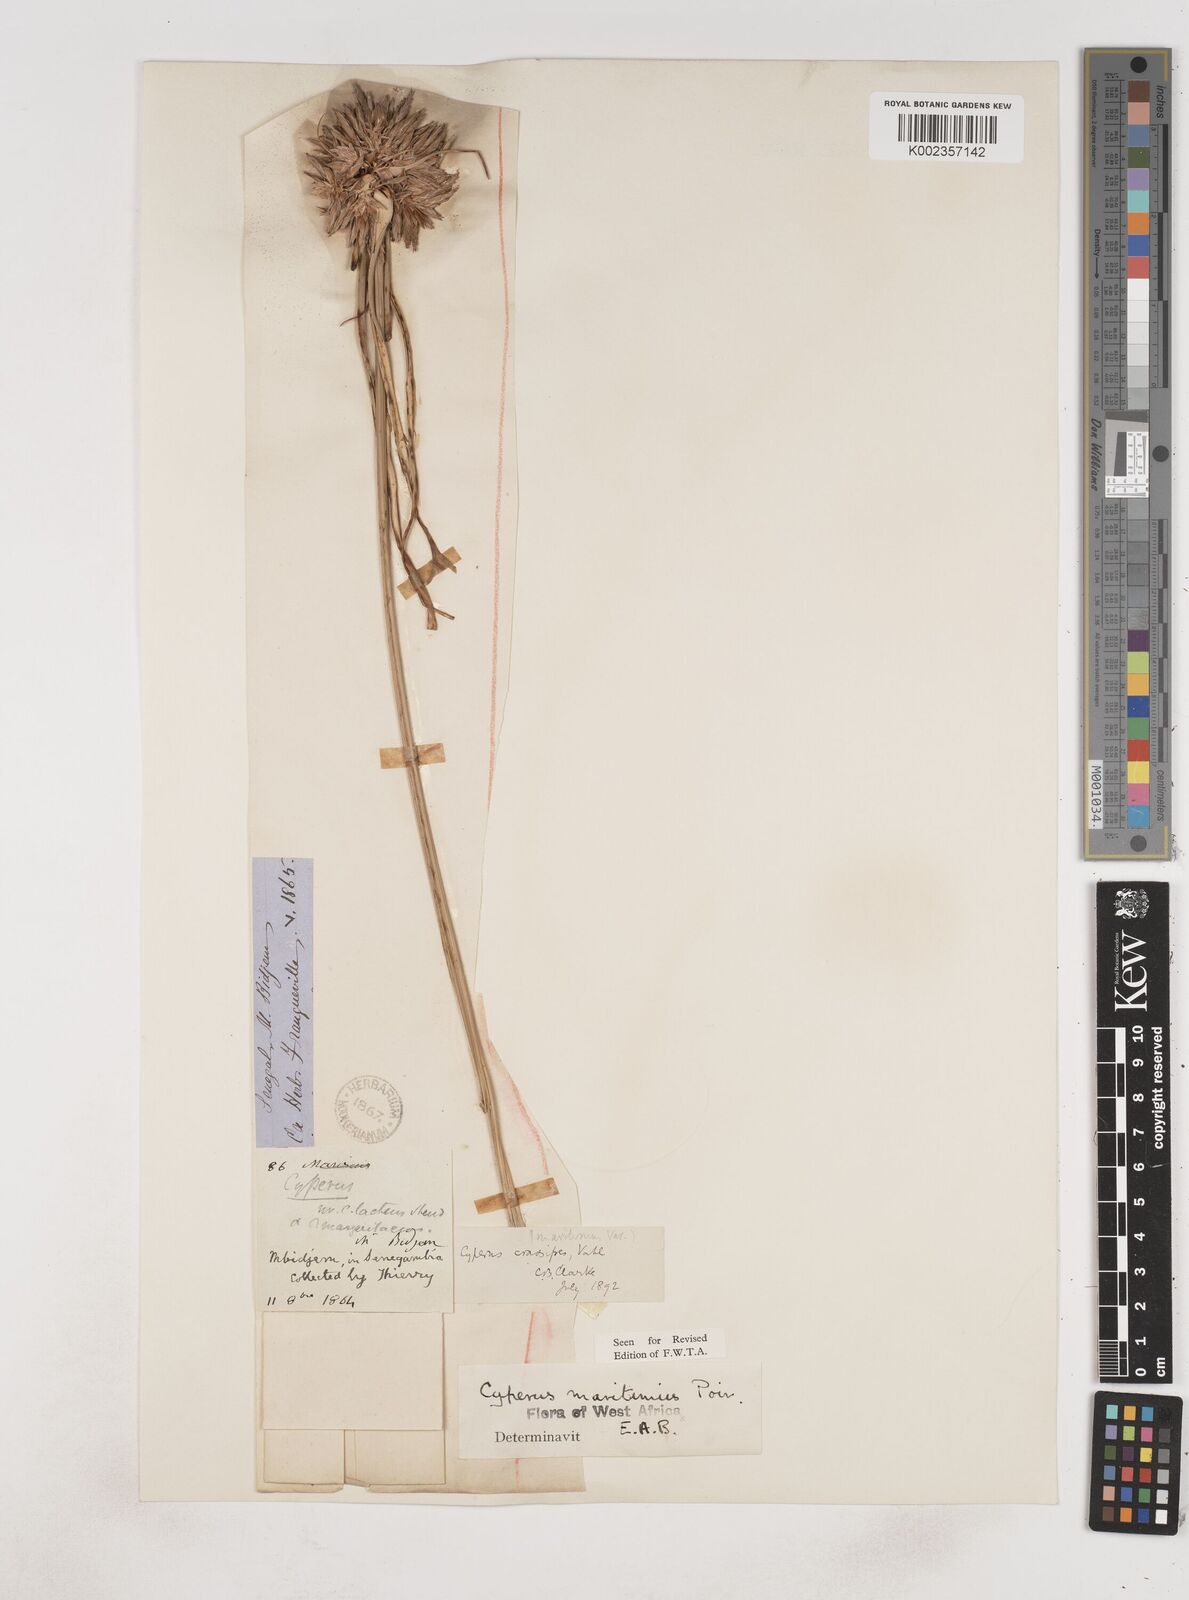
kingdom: Plantae
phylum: Tracheophyta
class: Liliopsida
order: Poales
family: Cyperaceae
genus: Cyperus
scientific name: Cyperus crassipes
